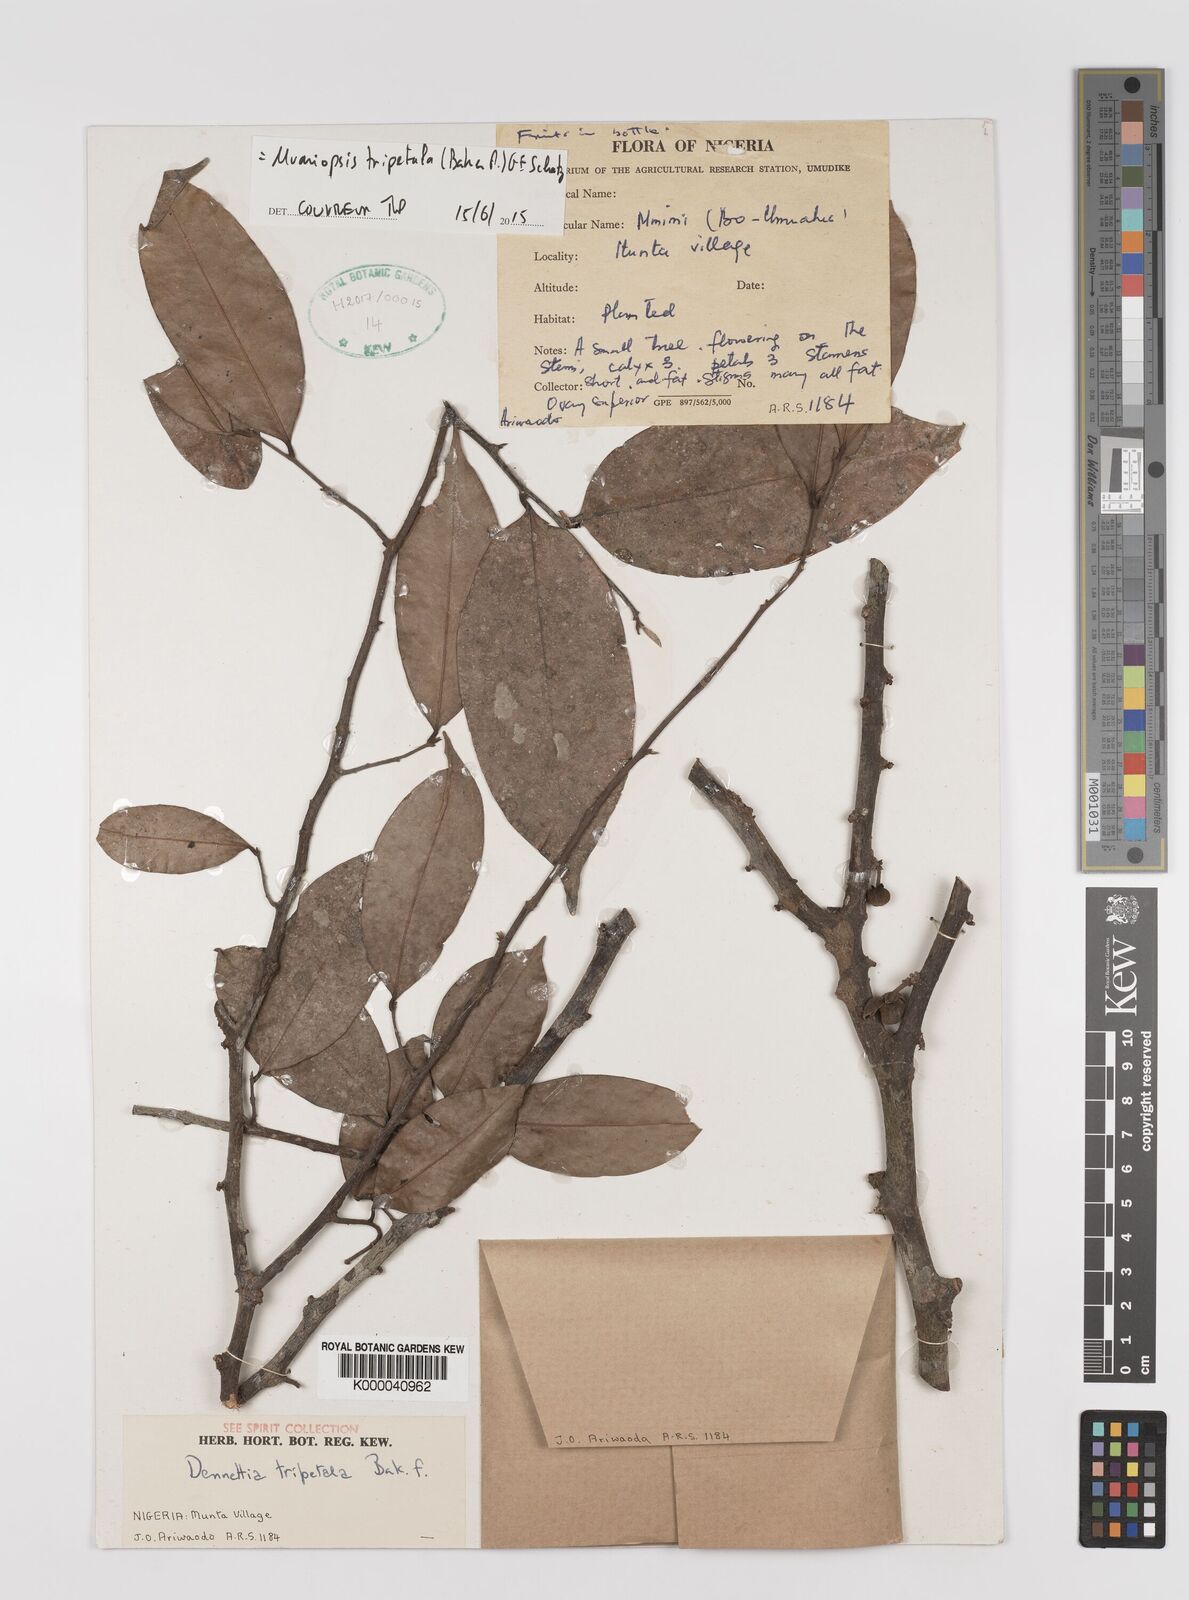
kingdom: Plantae
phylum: Tracheophyta
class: Magnoliopsida
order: Magnoliales
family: Annonaceae
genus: Uvariopsis
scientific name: Uvariopsis tripetala
